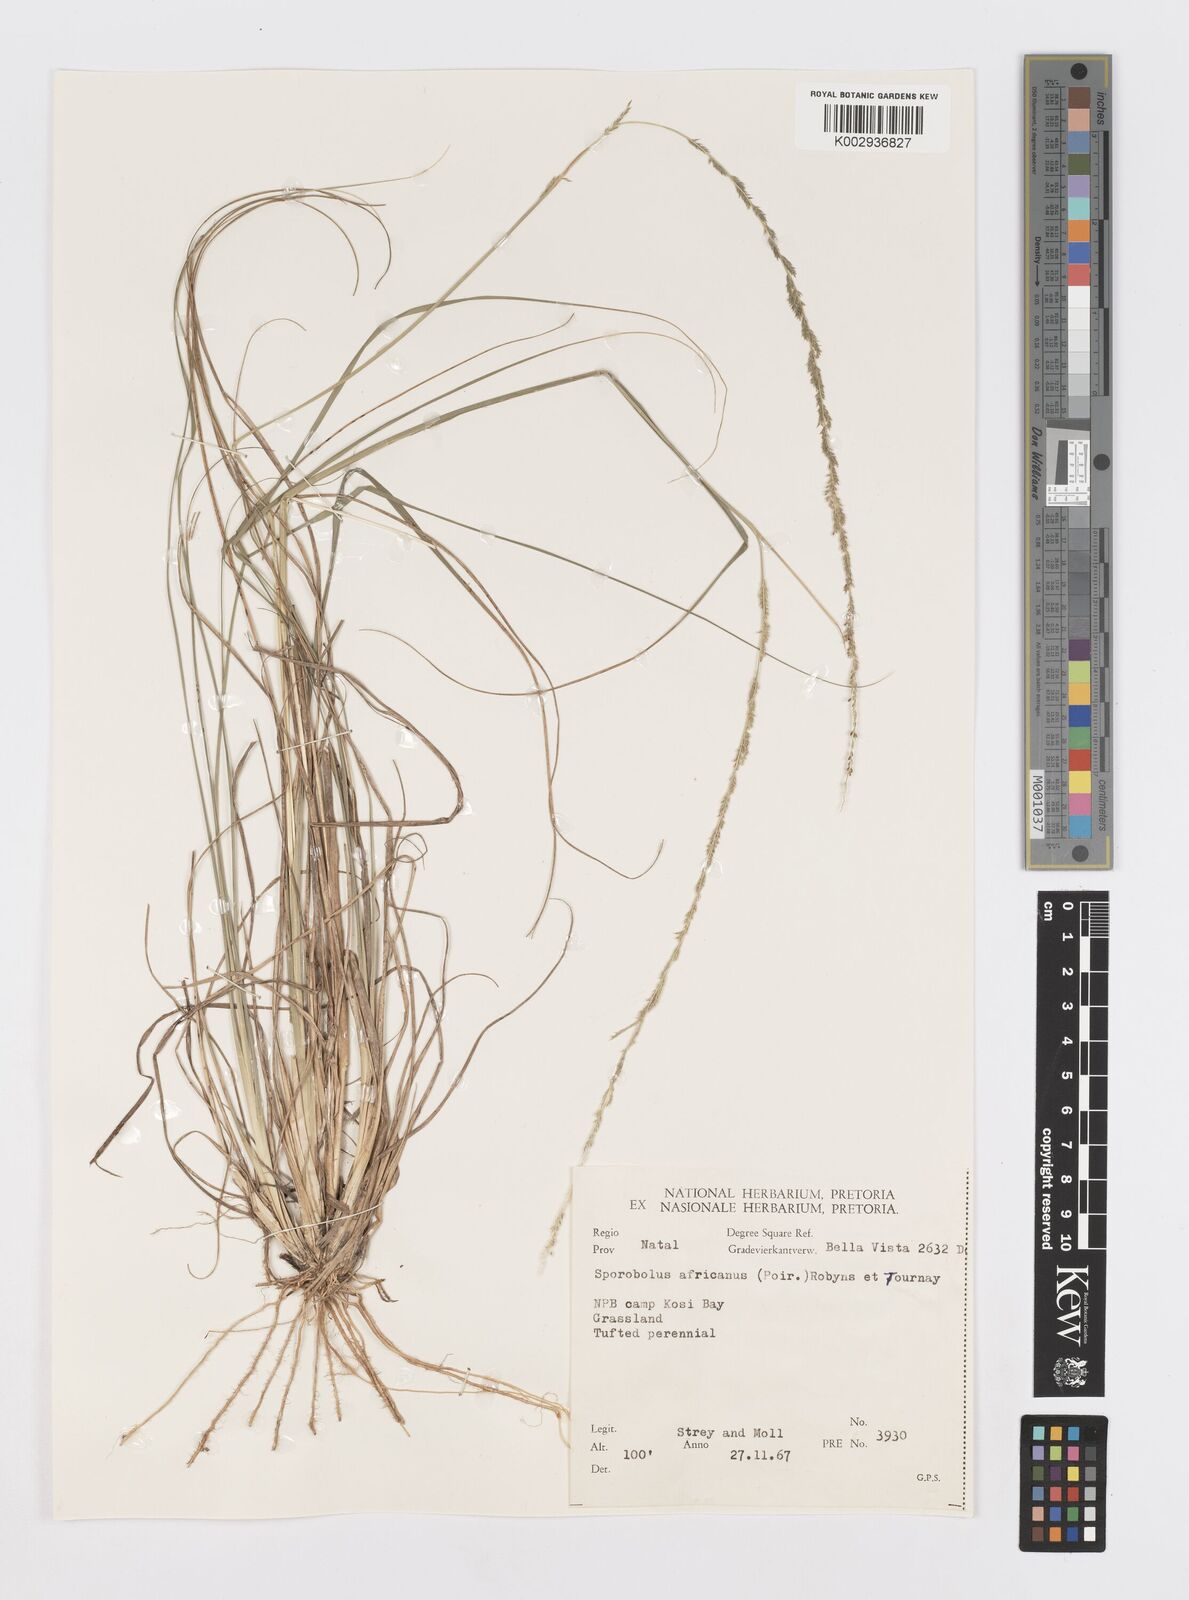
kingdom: Plantae
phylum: Tracheophyta
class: Liliopsida
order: Poales
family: Poaceae
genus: Sporobolus
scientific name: Sporobolus africanus
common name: African dropseed
